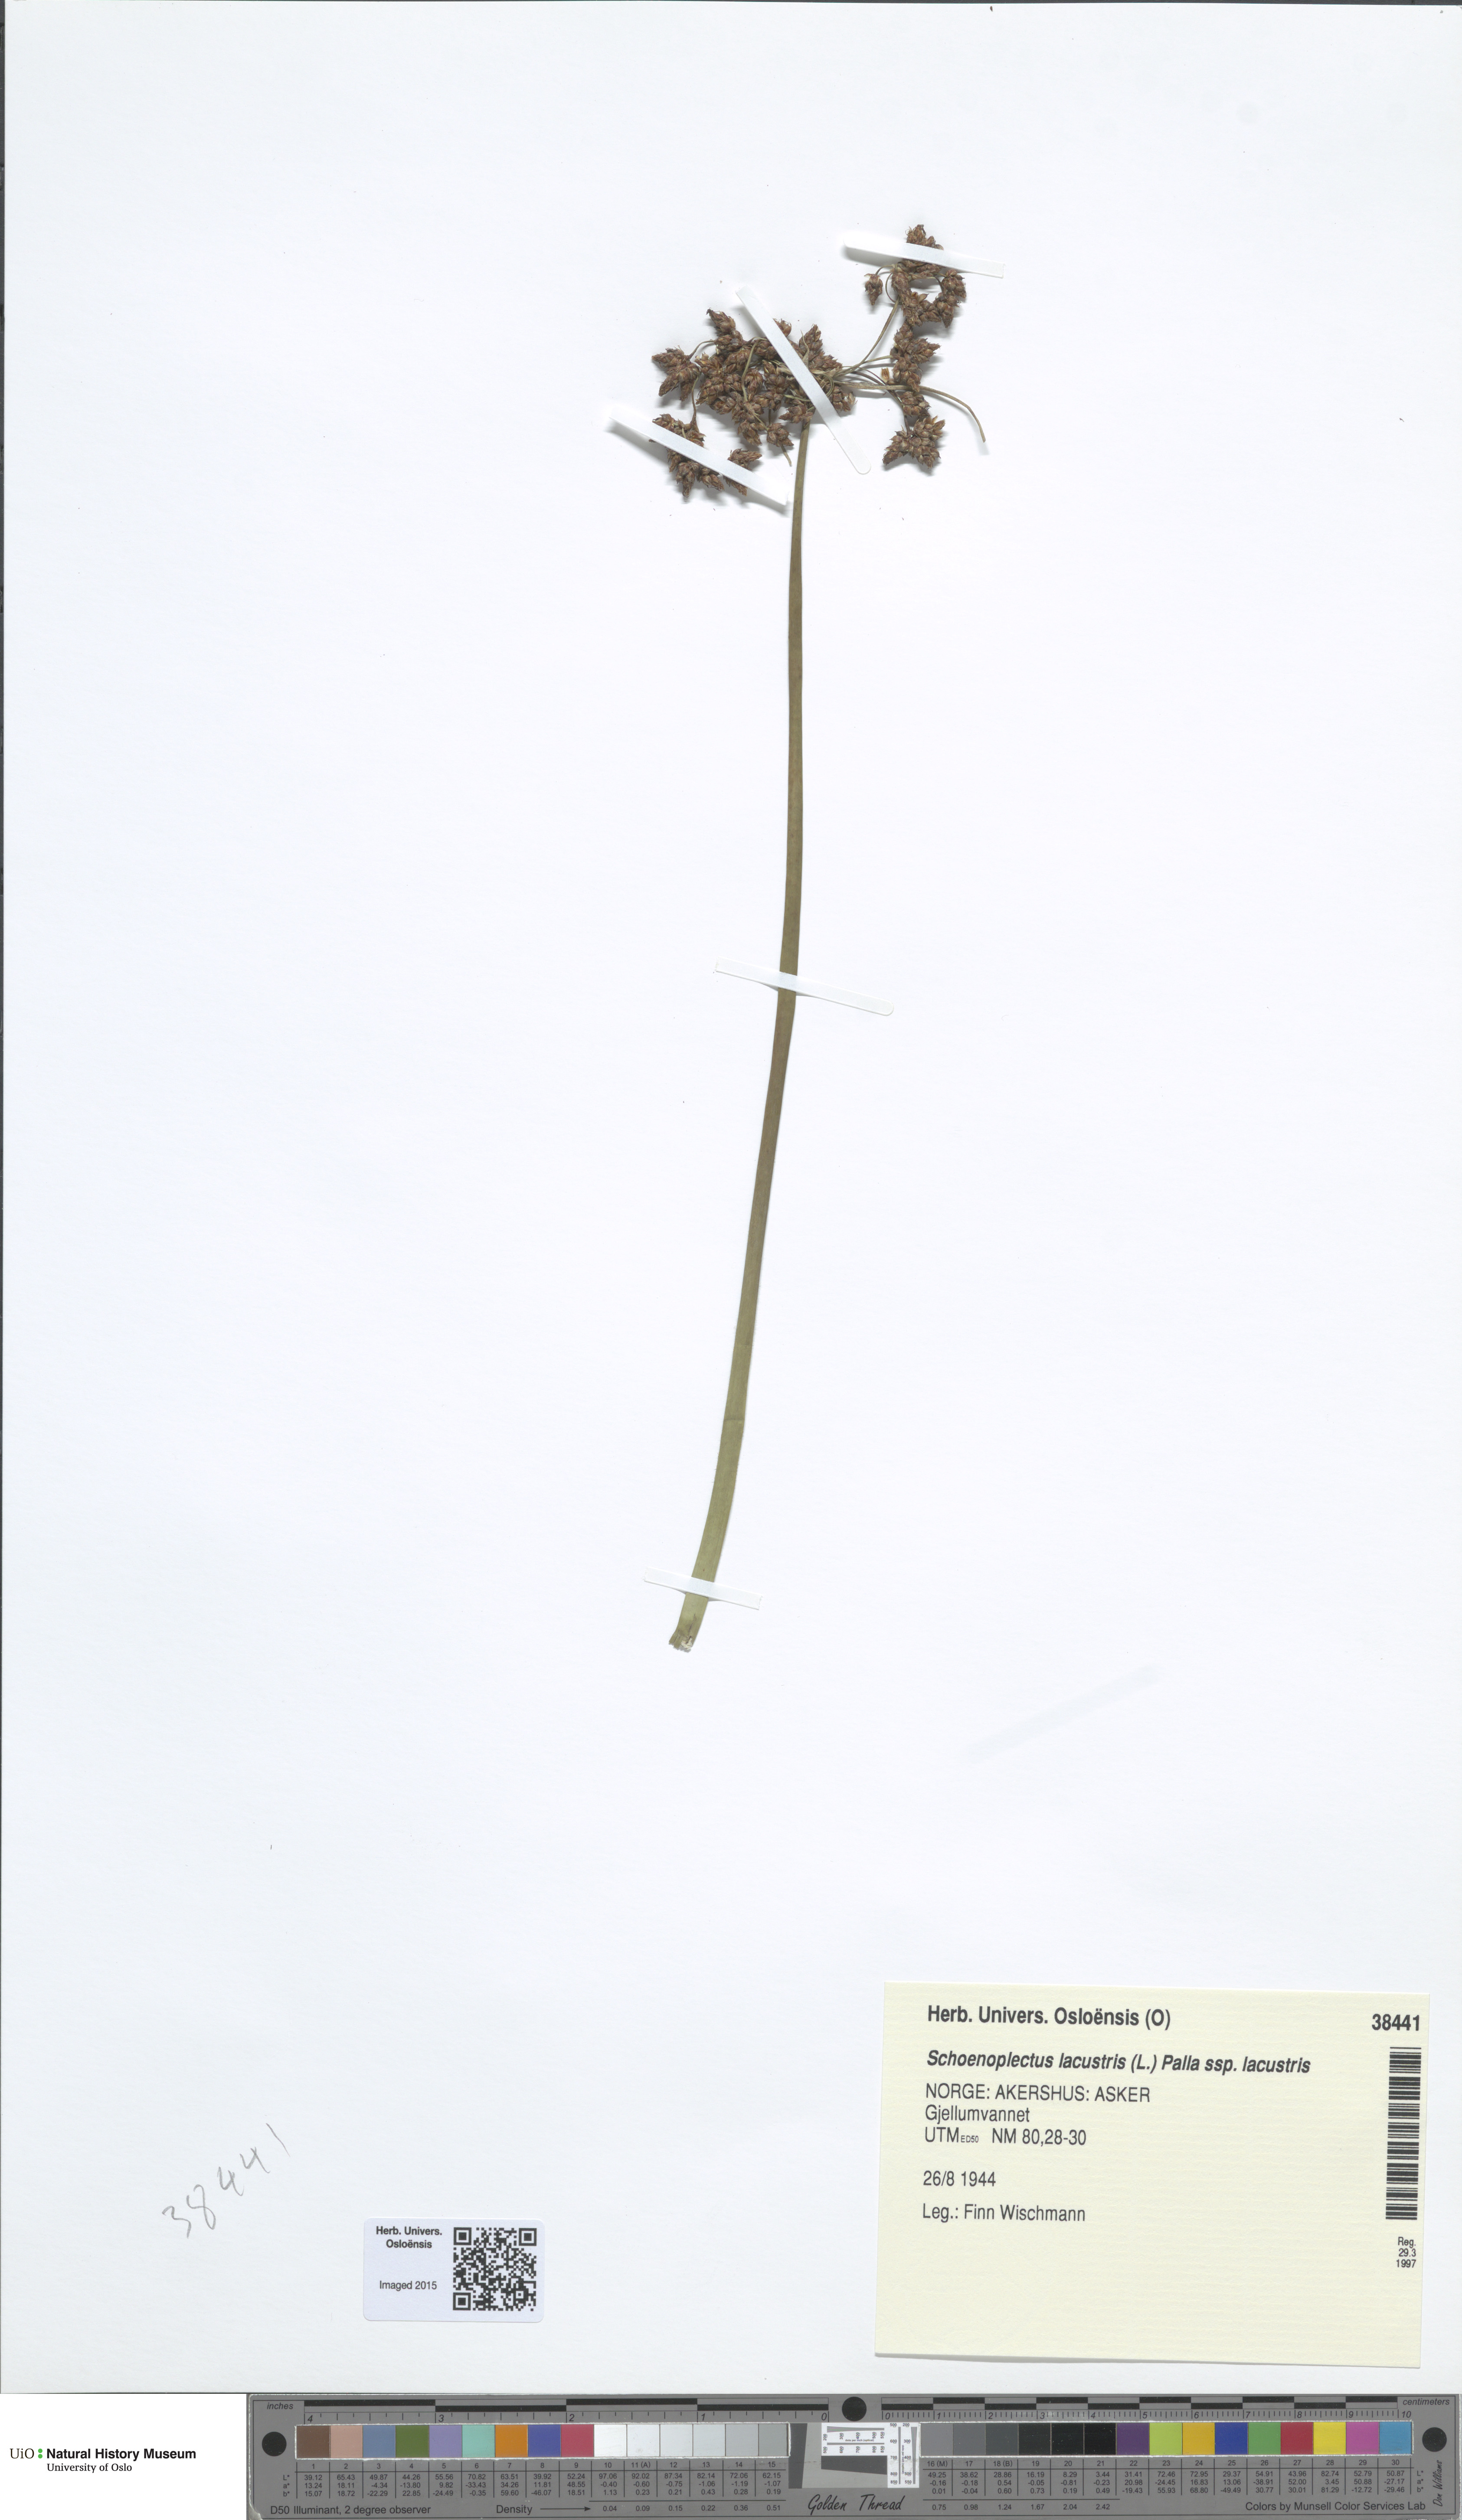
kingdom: Plantae
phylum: Tracheophyta
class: Liliopsida
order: Poales
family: Cyperaceae
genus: Schoenoplectus
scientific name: Schoenoplectus lacustris
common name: Common club-rush
